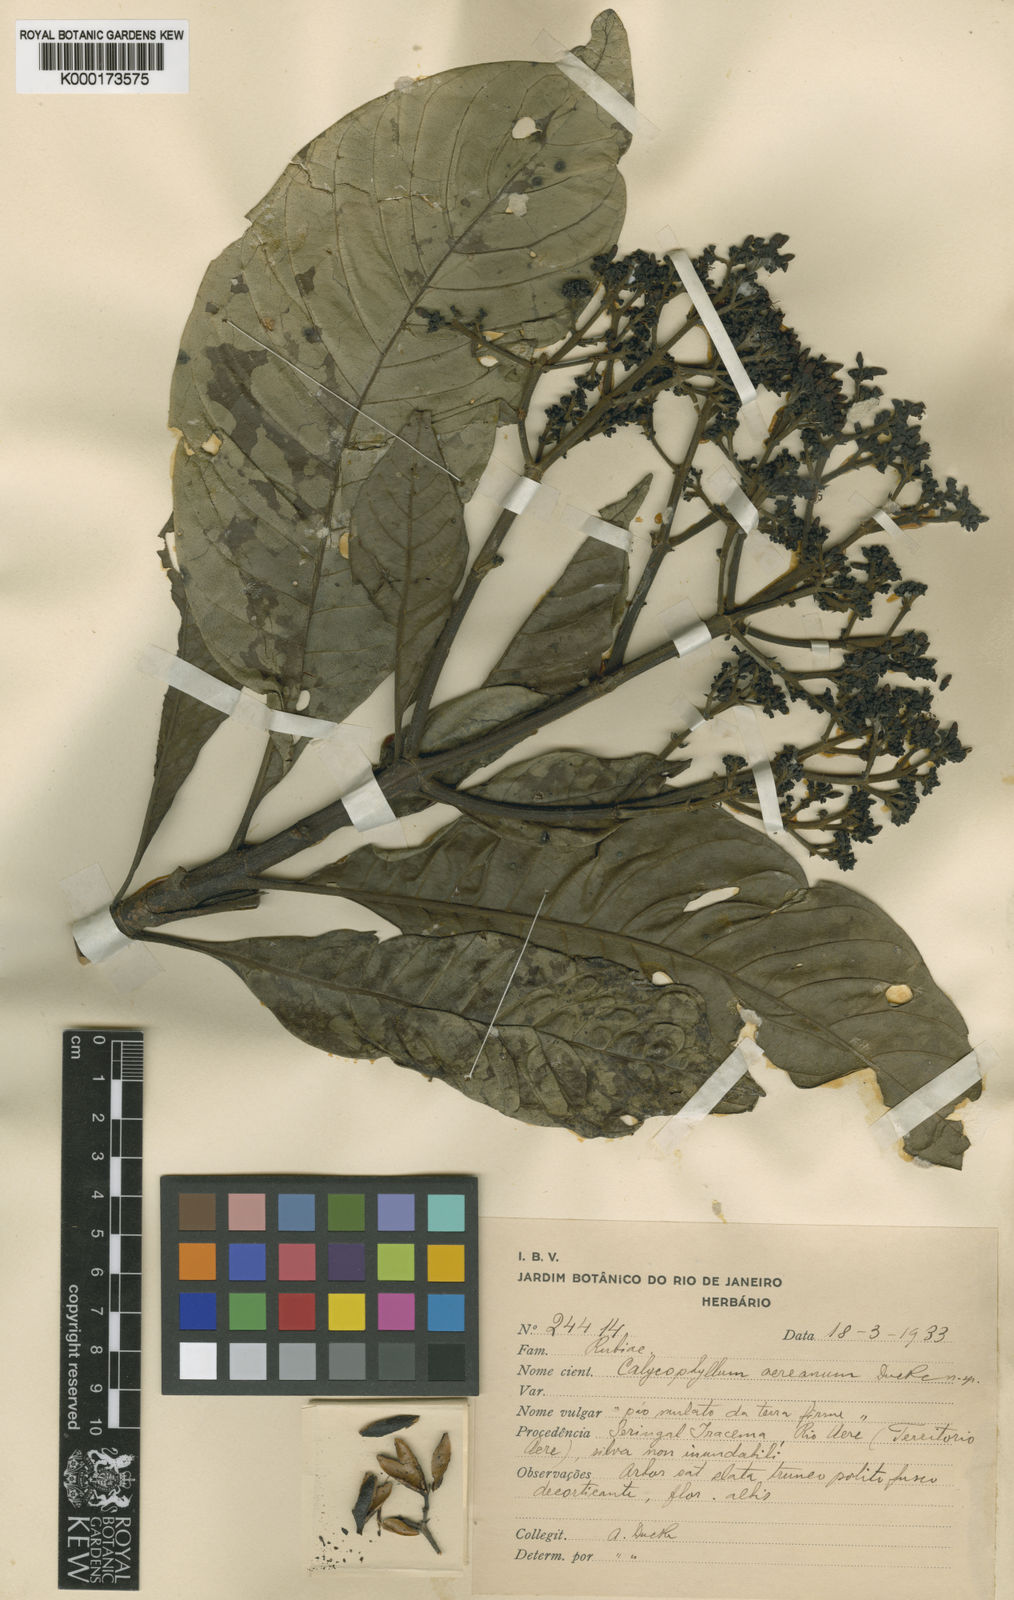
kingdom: Plantae
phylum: Tracheophyta
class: Magnoliopsida
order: Gentianales
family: Rubiaceae
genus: Calycophyllum
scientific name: Calycophyllum megistocaulum
